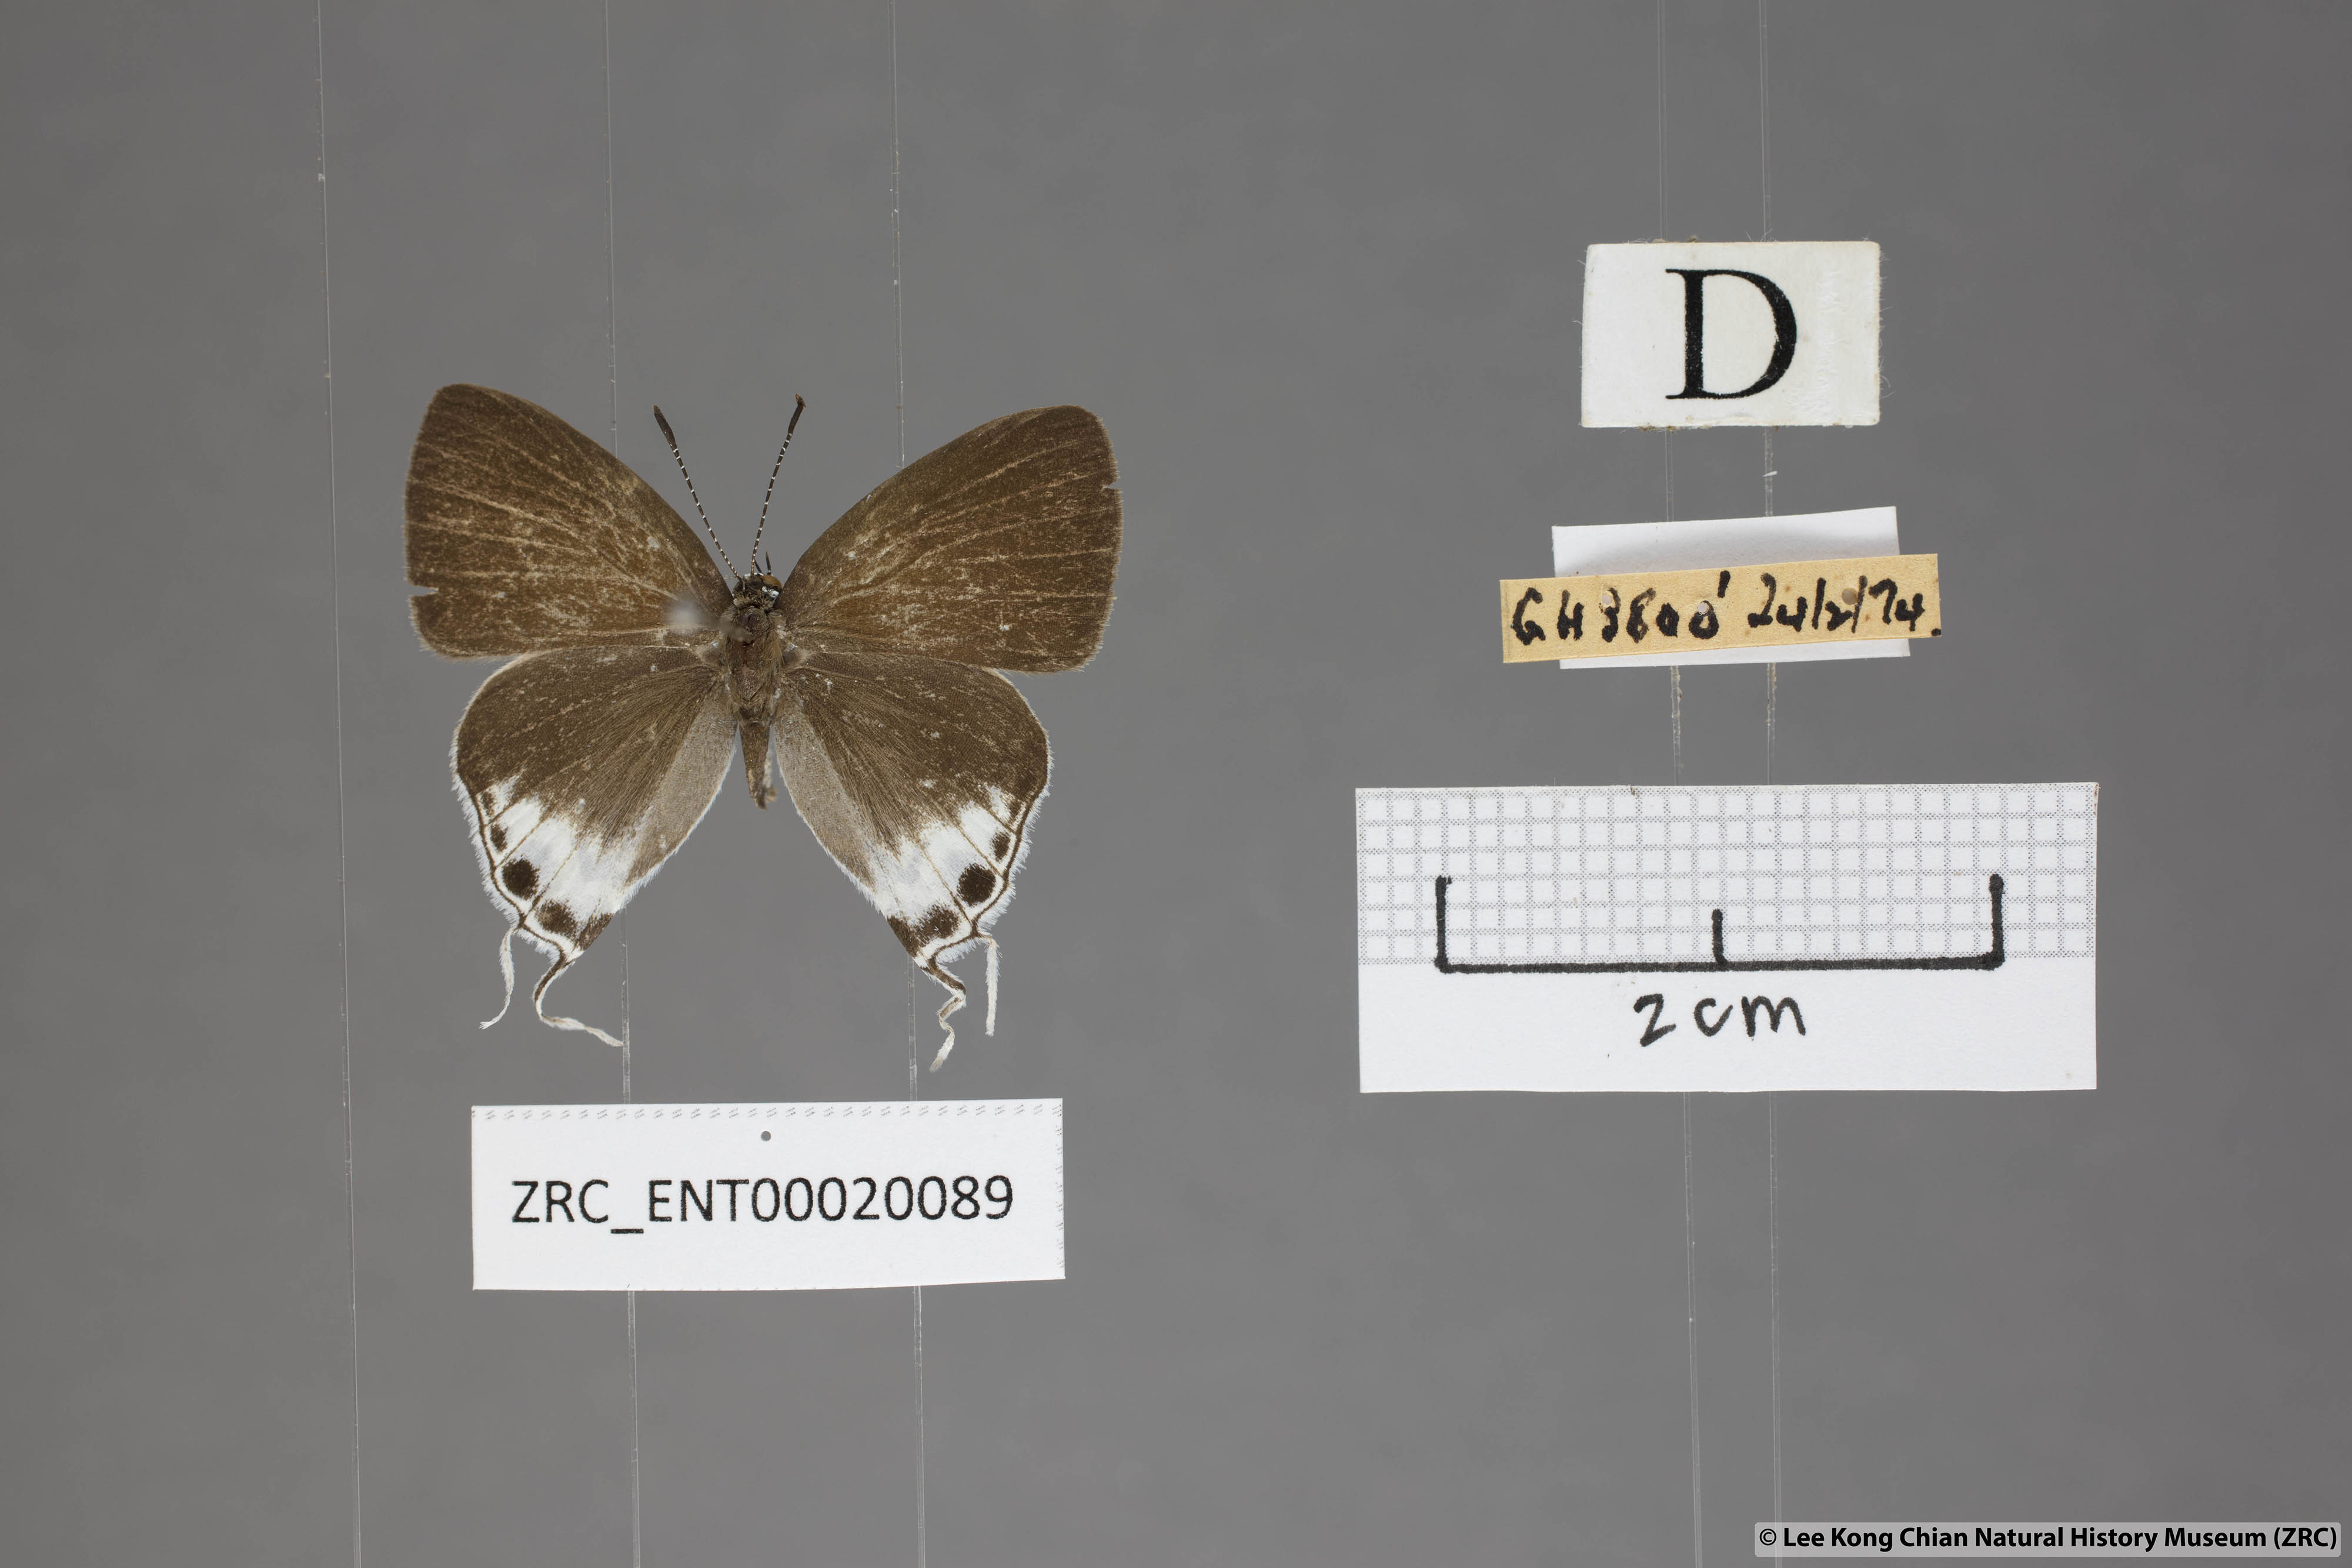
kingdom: Animalia
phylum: Arthropoda
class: Insecta
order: Lepidoptera
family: Lycaenidae
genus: Hypolycaena
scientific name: Hypolycaena amabilis
